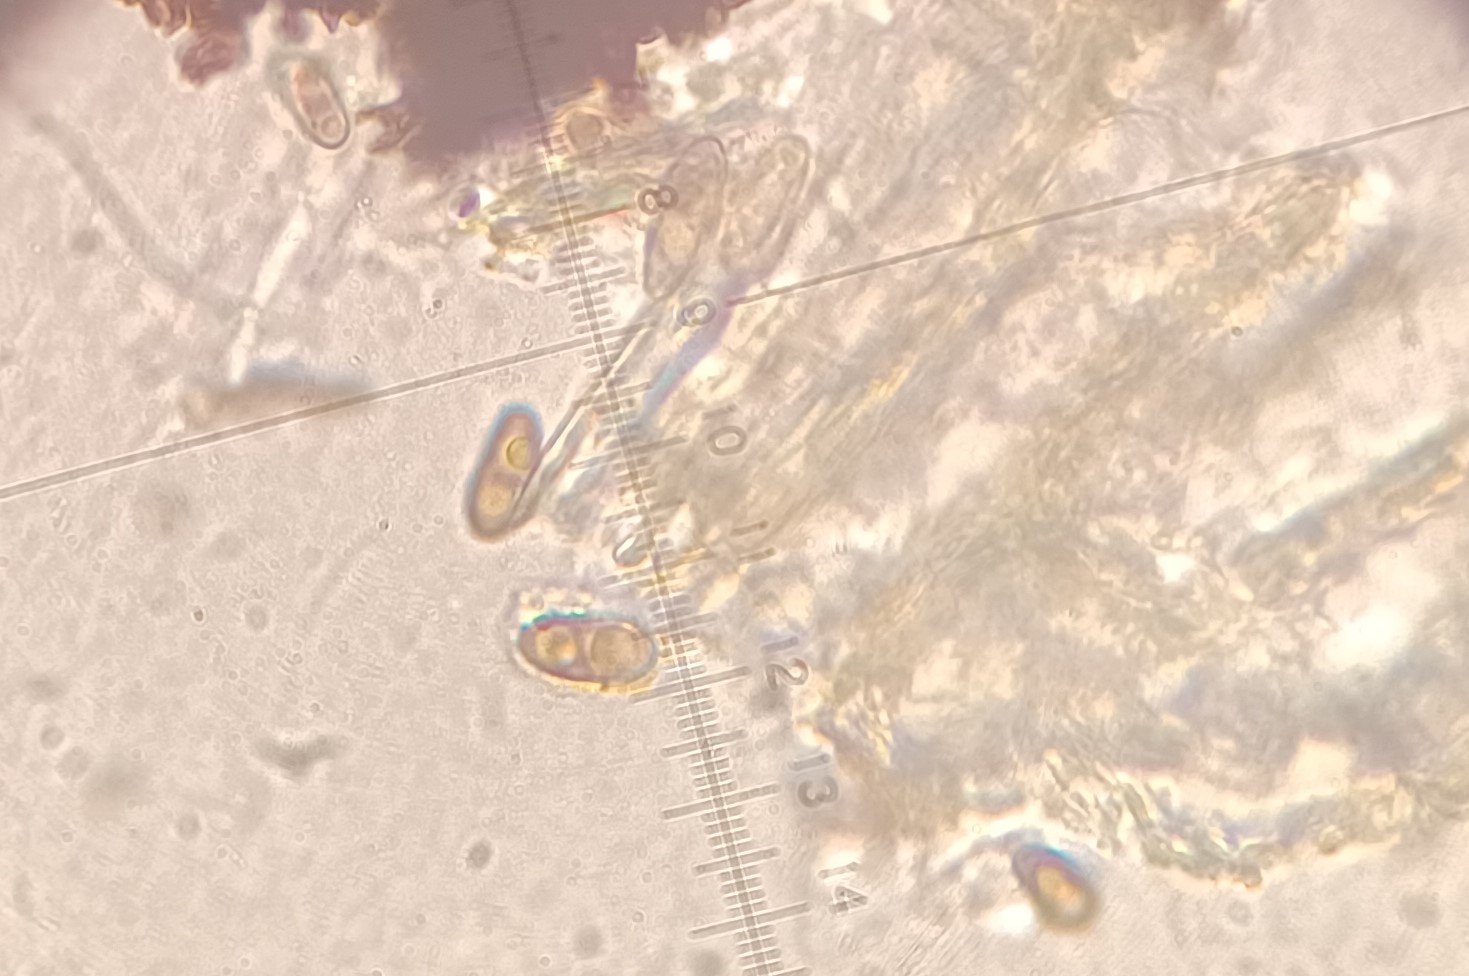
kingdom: Fungi
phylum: Ascomycota
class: Sordariomycetes
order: Xylariales
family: Xylariaceae
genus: Nemania
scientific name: Nemania
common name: kuldyne
